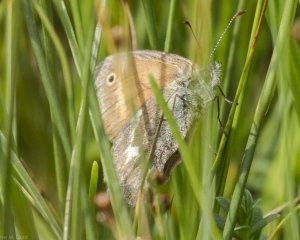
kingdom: Animalia
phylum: Arthropoda
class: Insecta
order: Lepidoptera
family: Nymphalidae
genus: Coenonympha
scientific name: Coenonympha inornata
